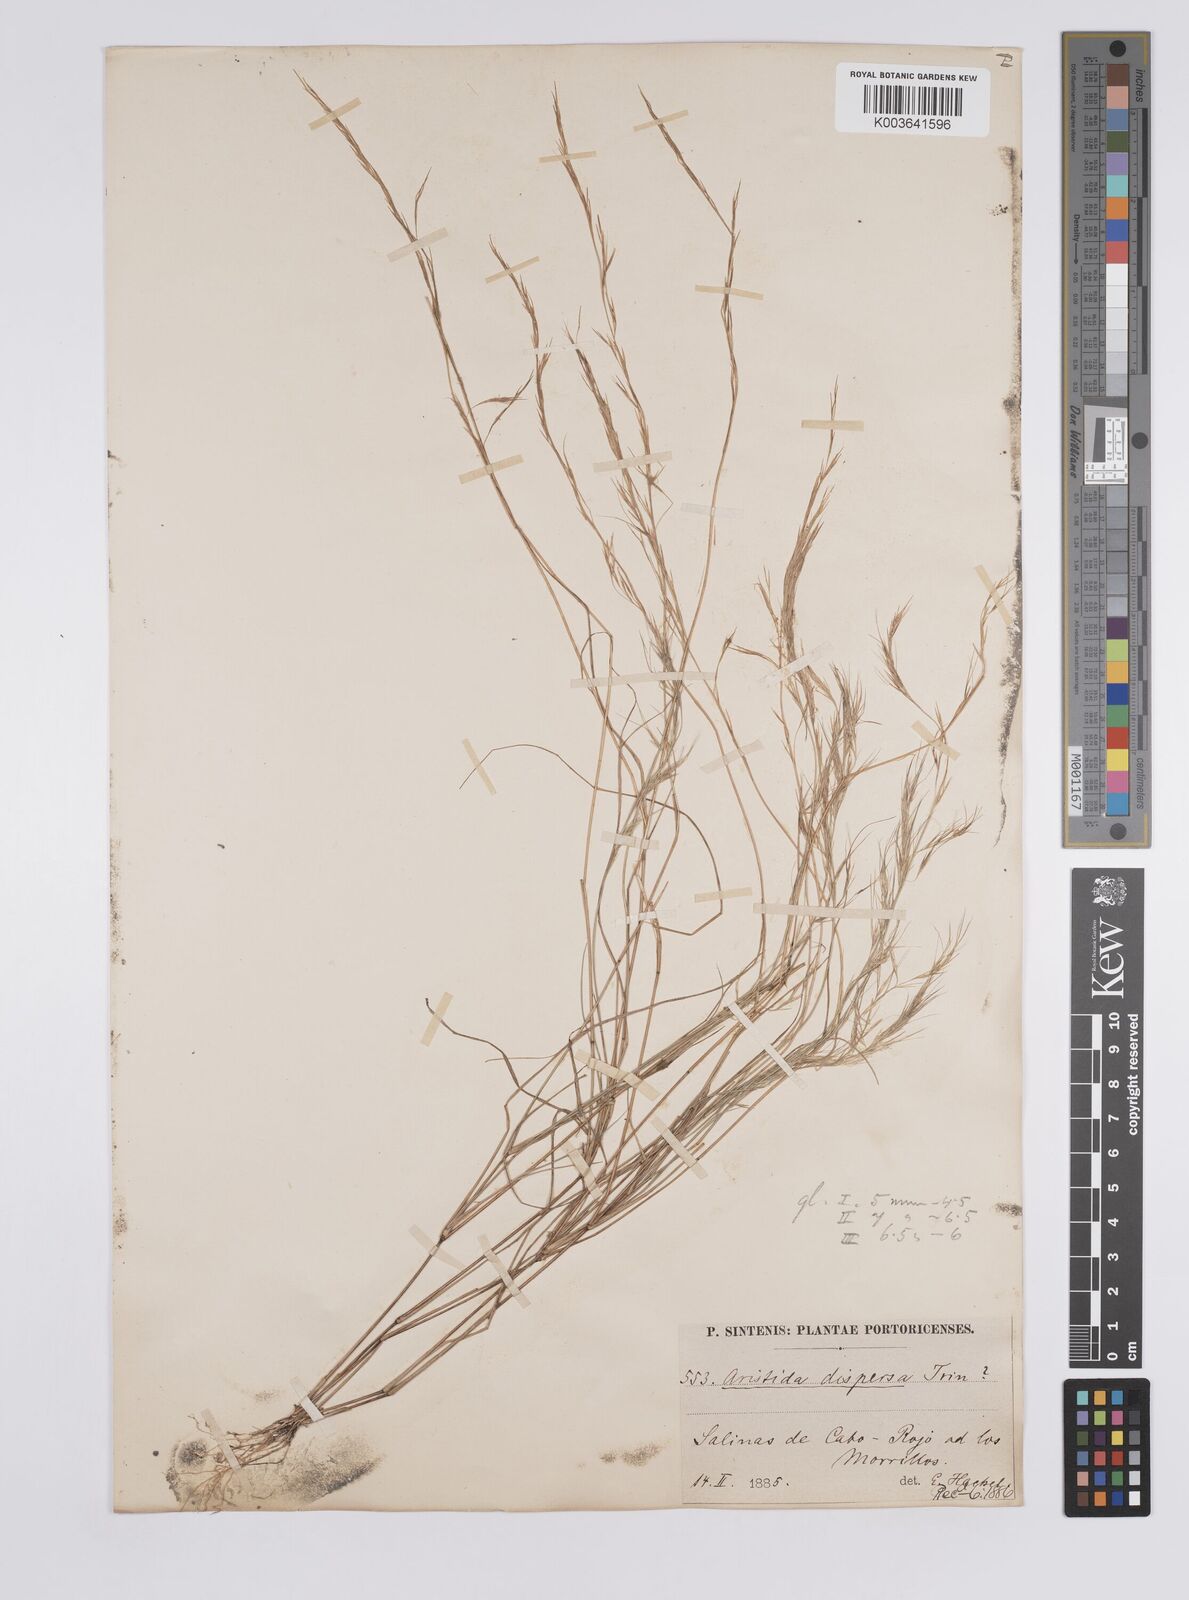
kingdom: Plantae
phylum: Tracheophyta
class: Liliopsida
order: Poales
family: Poaceae
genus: Aristida
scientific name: Aristida adscensionis
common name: Sixweeks threeawn
